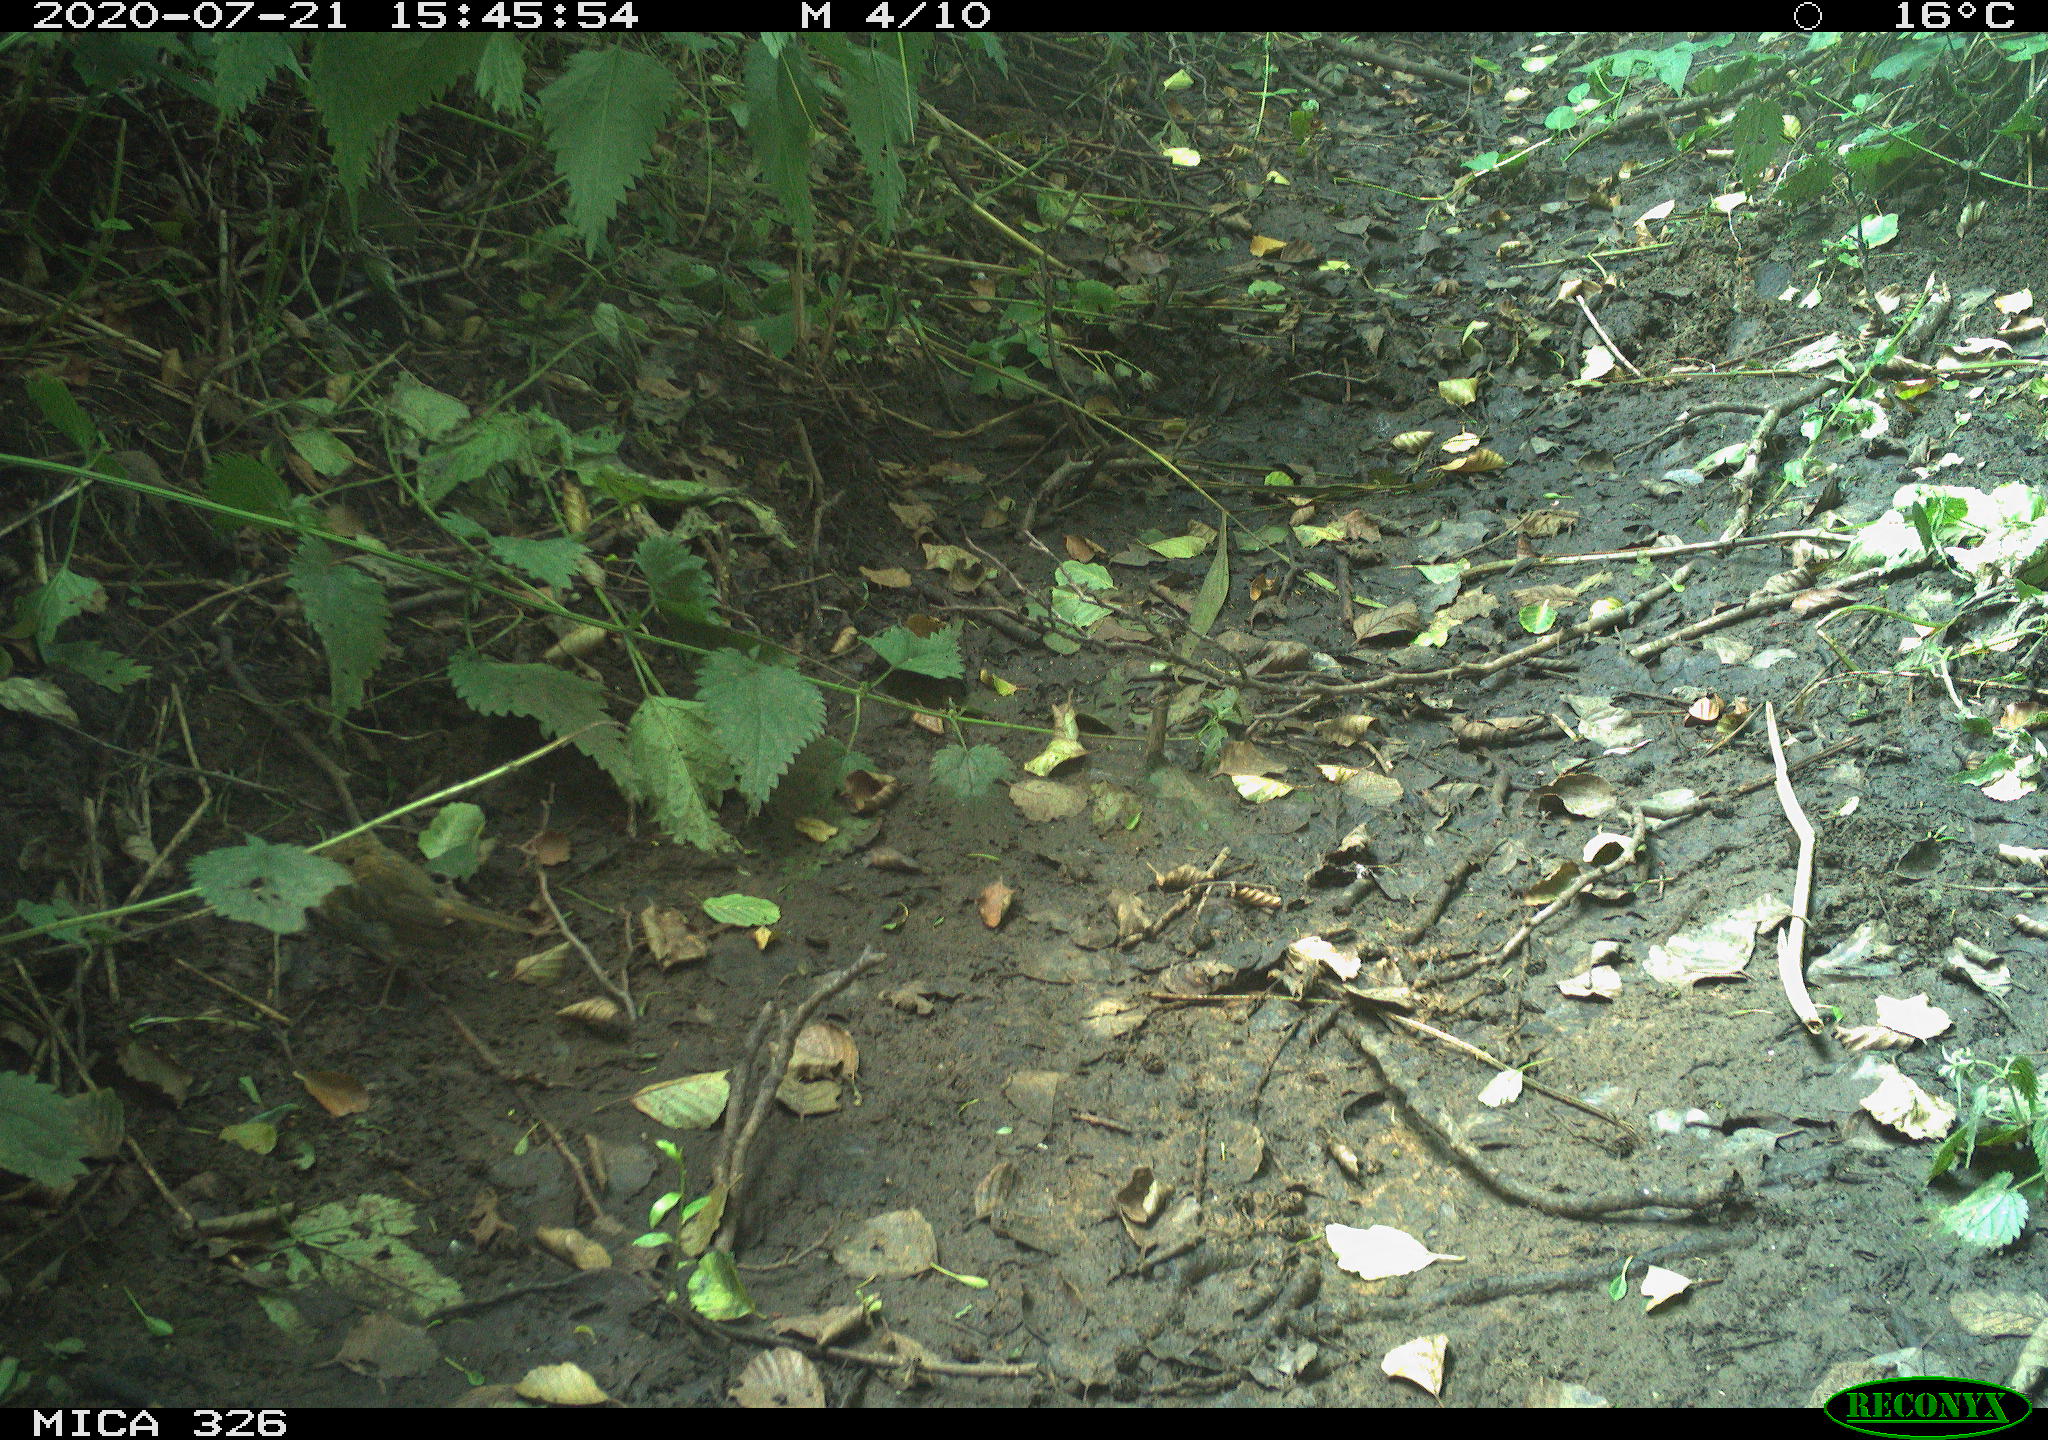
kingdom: Animalia
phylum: Chordata
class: Aves
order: Passeriformes
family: Muscicapidae
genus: Erithacus
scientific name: Erithacus rubecula
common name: European robin
